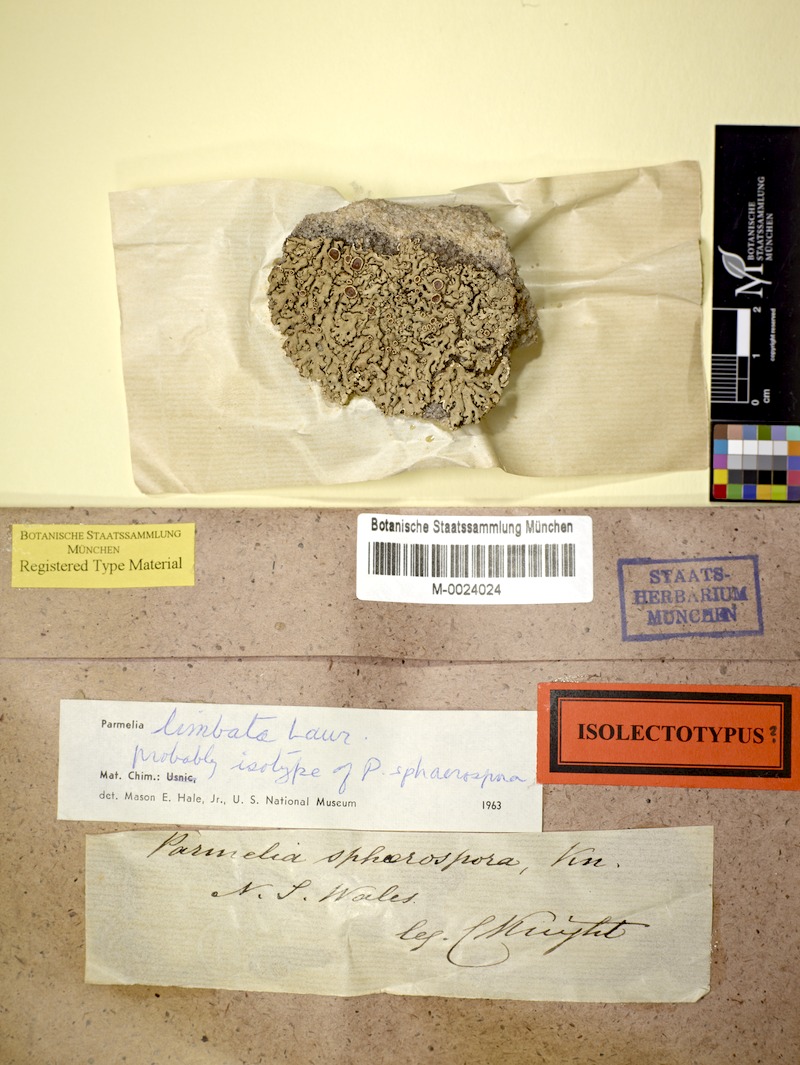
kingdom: Fungi
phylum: Ascomycota
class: Lecanoromycetes
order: Lecanorales
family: Parmeliaceae
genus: Relicina
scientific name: Relicina limbata
